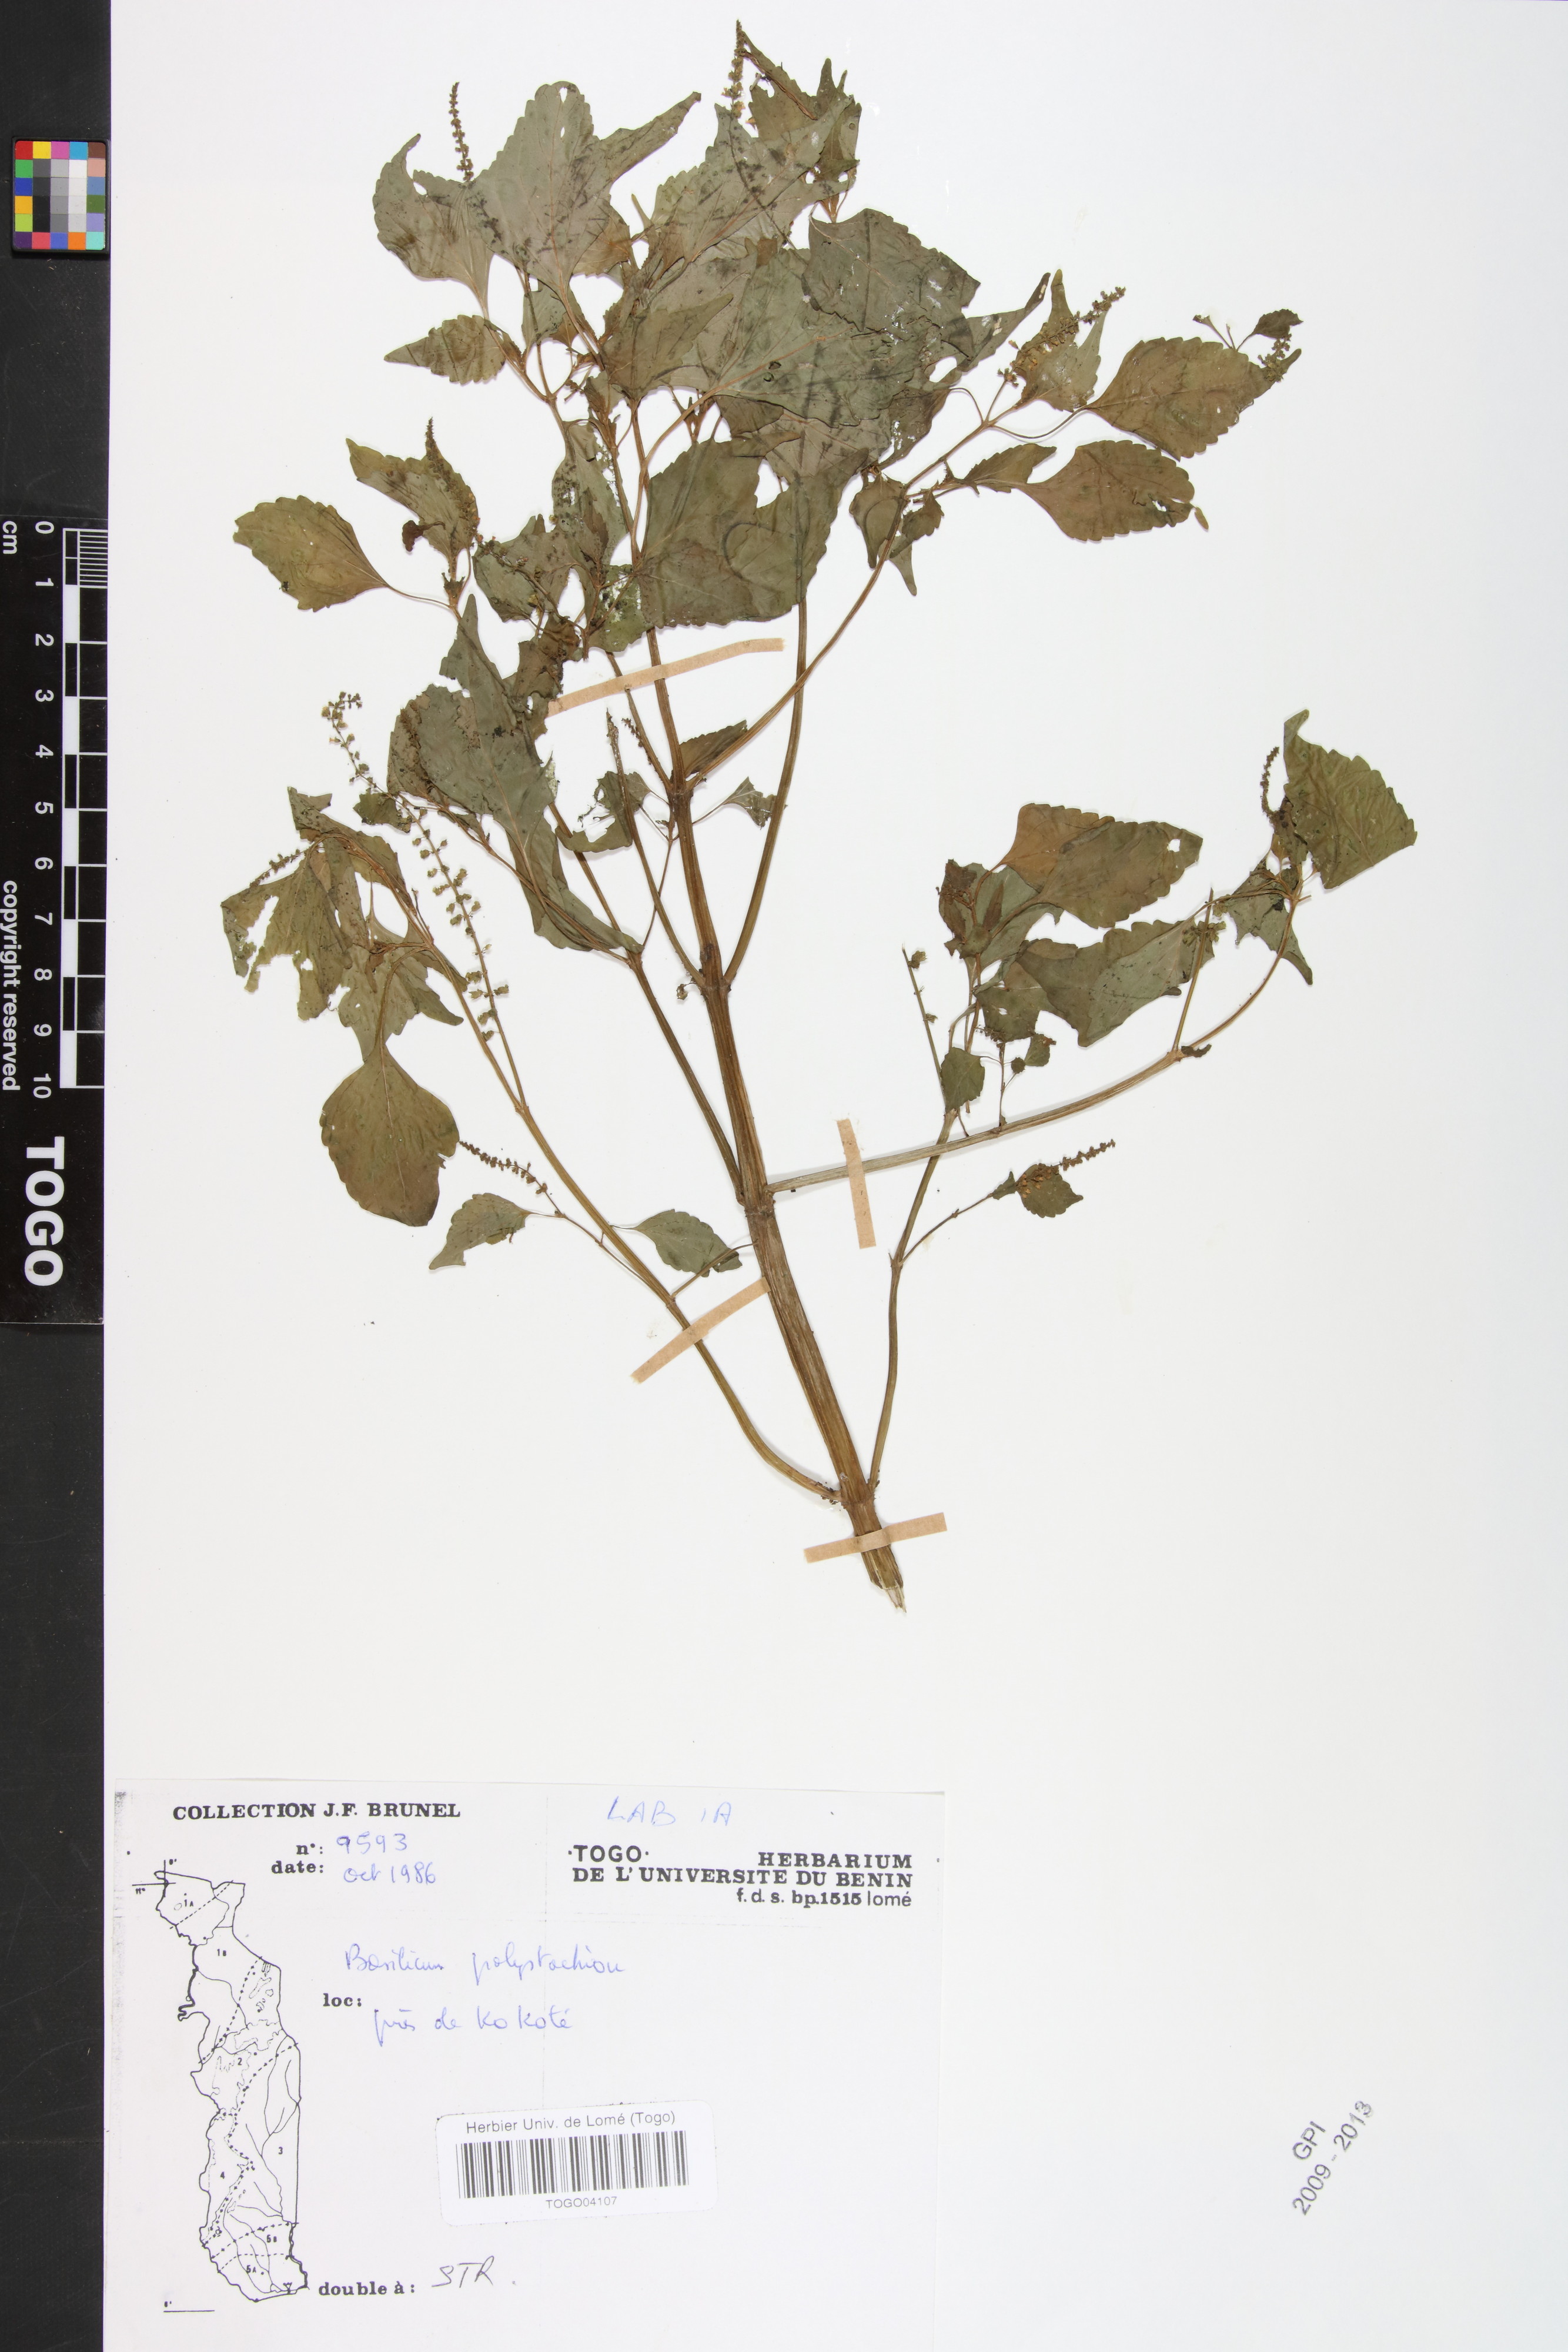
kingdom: Plantae
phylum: Tracheophyta
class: Magnoliopsida
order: Lamiales
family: Lamiaceae
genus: Basilicum
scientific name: Basilicum polystachyon
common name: Musk-basil
